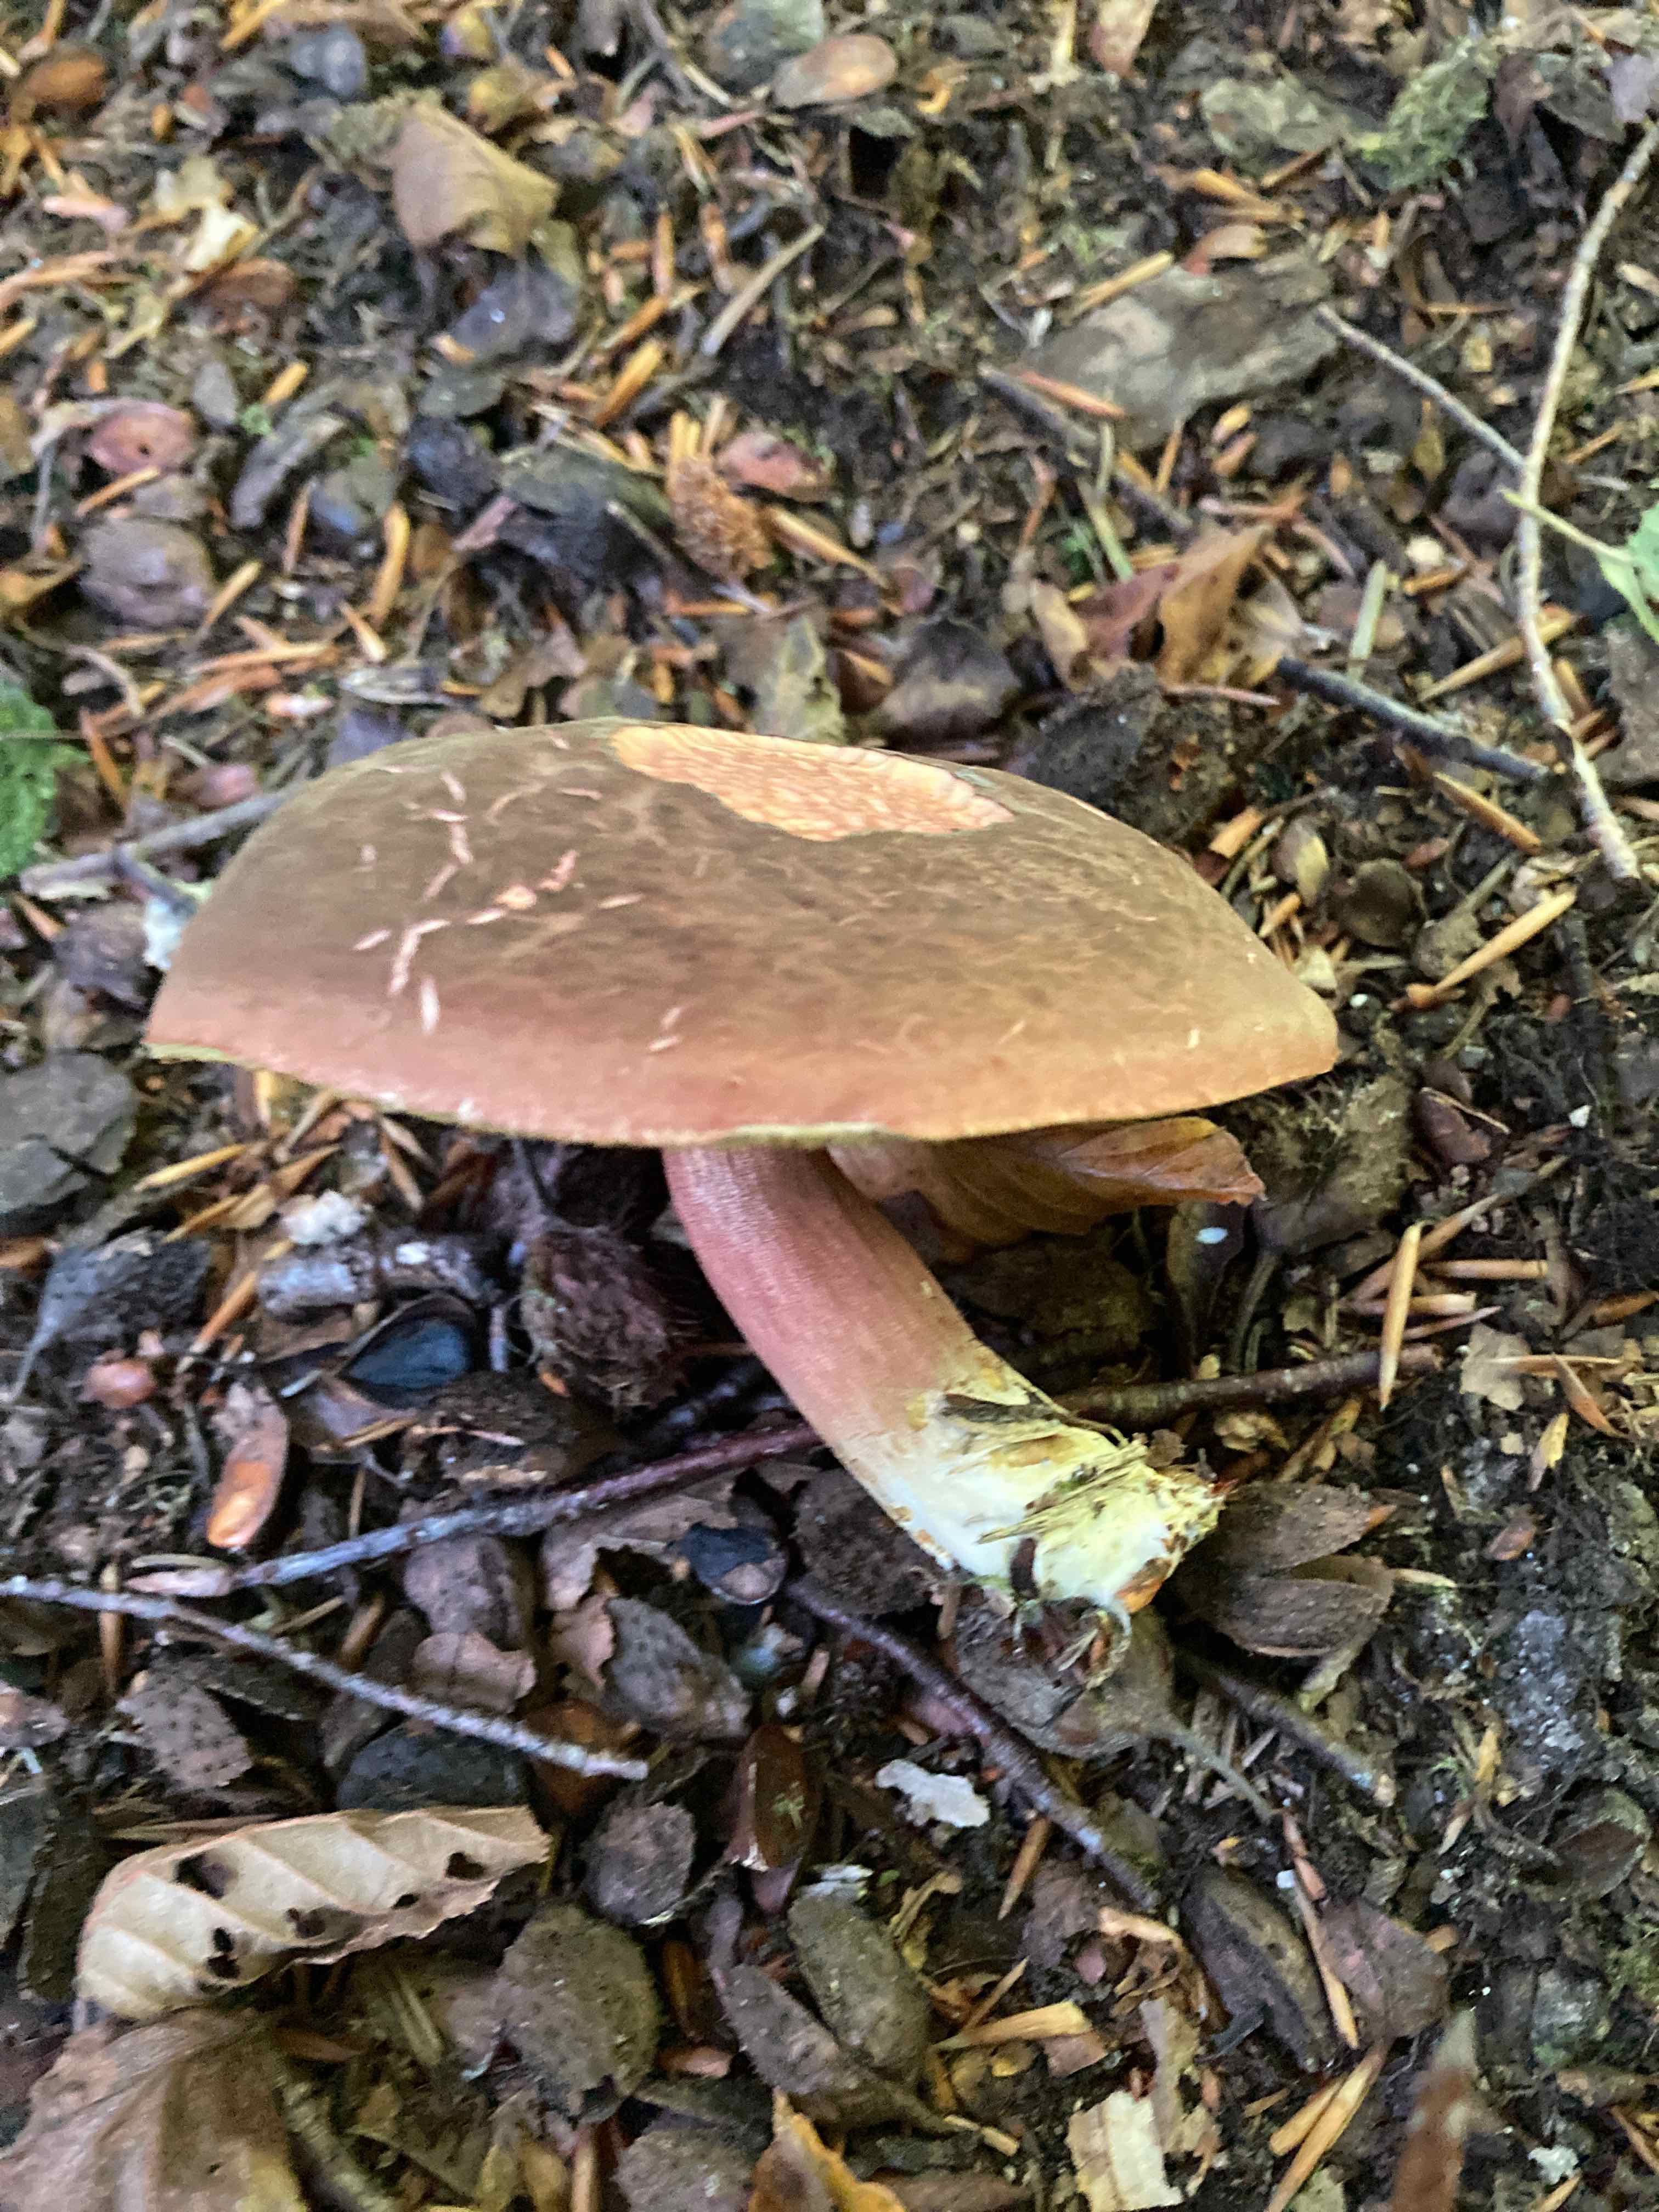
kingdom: Fungi
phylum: Basidiomycota
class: Agaricomycetes
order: Boletales
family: Boletaceae
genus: Xerocomellus
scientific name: Xerocomellus pruinatus
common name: dugget rørhat
